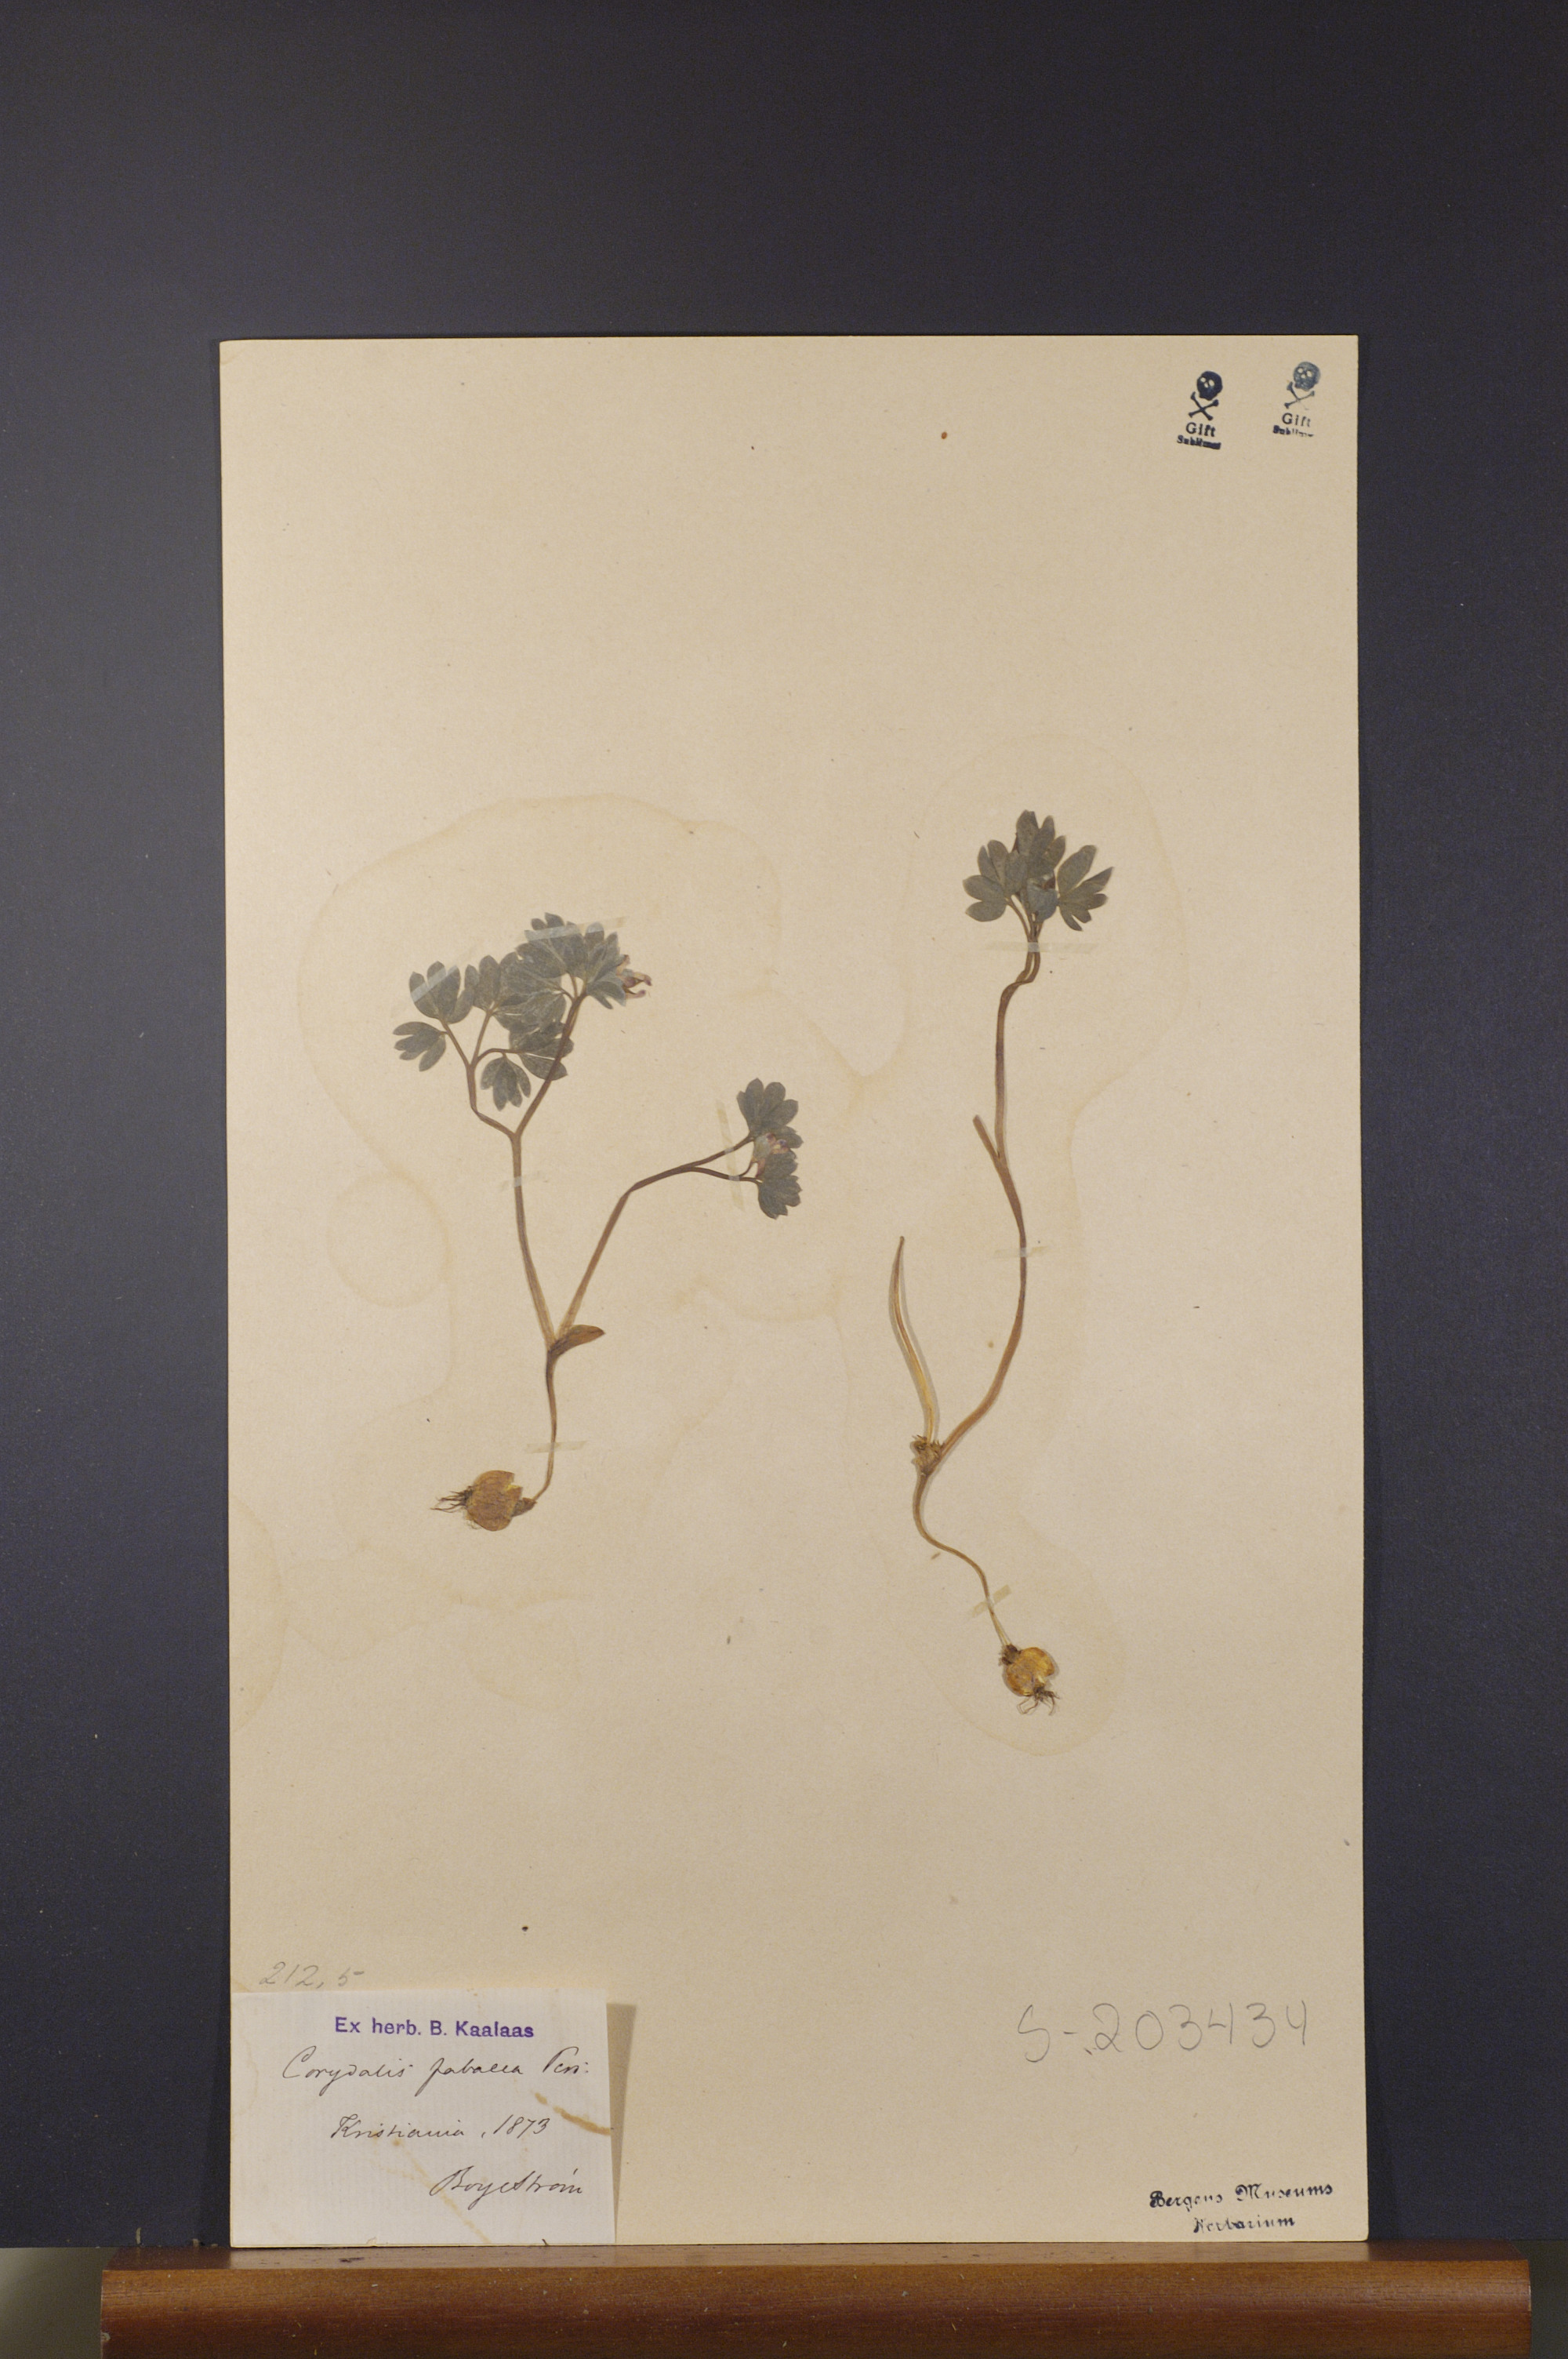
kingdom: Plantae
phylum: Tracheophyta
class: Magnoliopsida
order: Ranunculales
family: Papaveraceae
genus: Corydalis
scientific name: Corydalis intermedia
